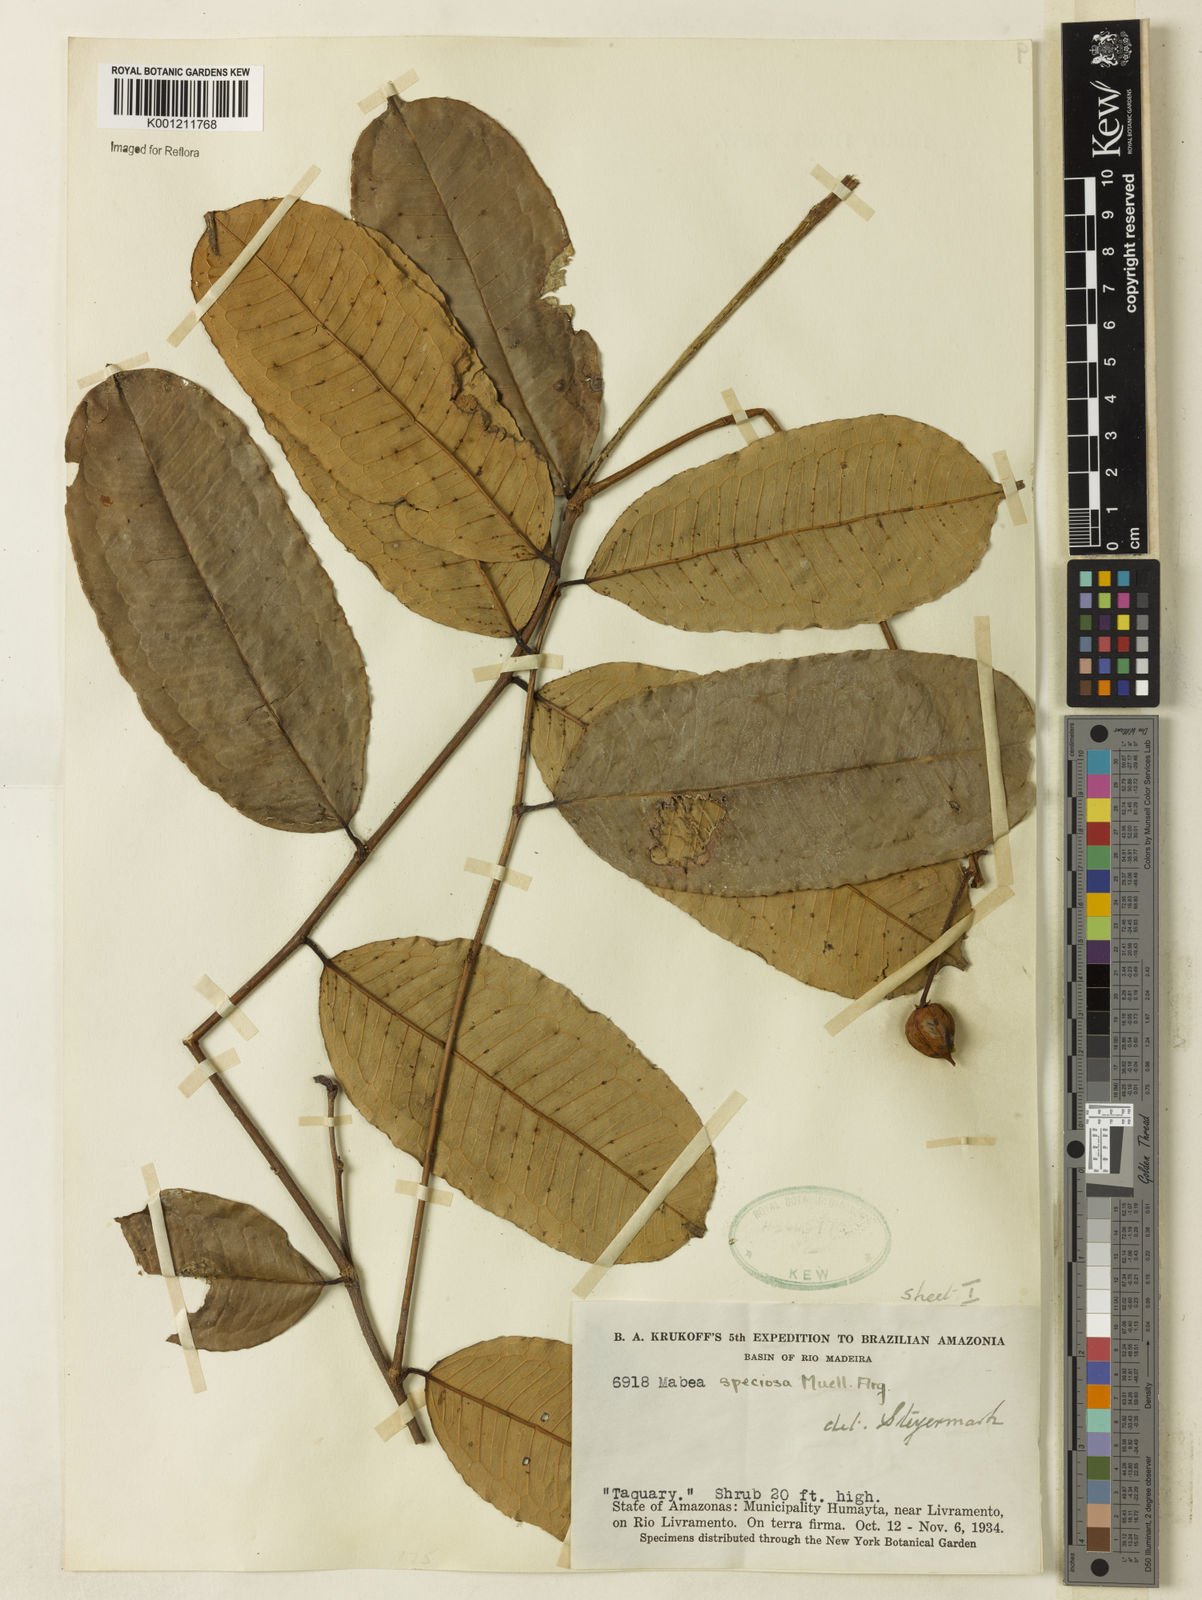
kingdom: Plantae
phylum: Tracheophyta
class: Magnoliopsida
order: Malpighiales
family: Euphorbiaceae
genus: Mabea
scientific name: Mabea
